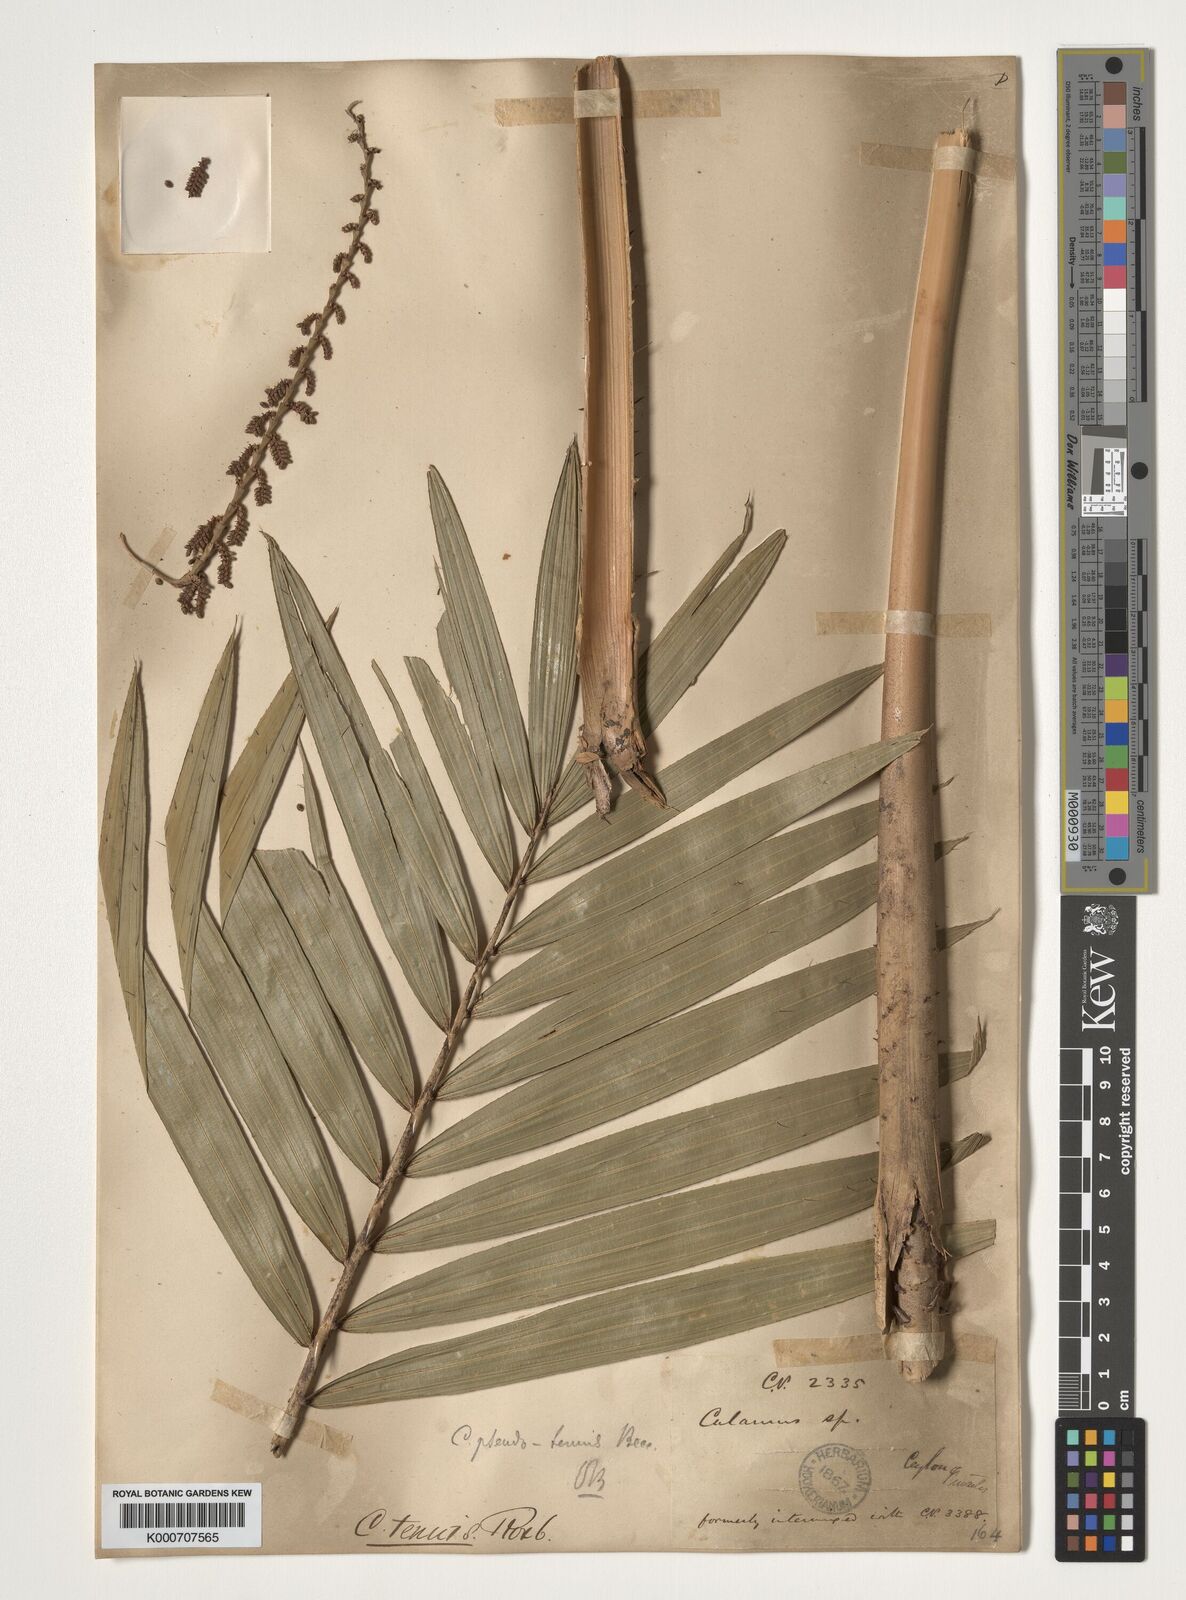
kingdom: Plantae
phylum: Tracheophyta
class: Liliopsida
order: Arecales
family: Arecaceae
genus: Calamus
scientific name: Calamus pseudotenuis
